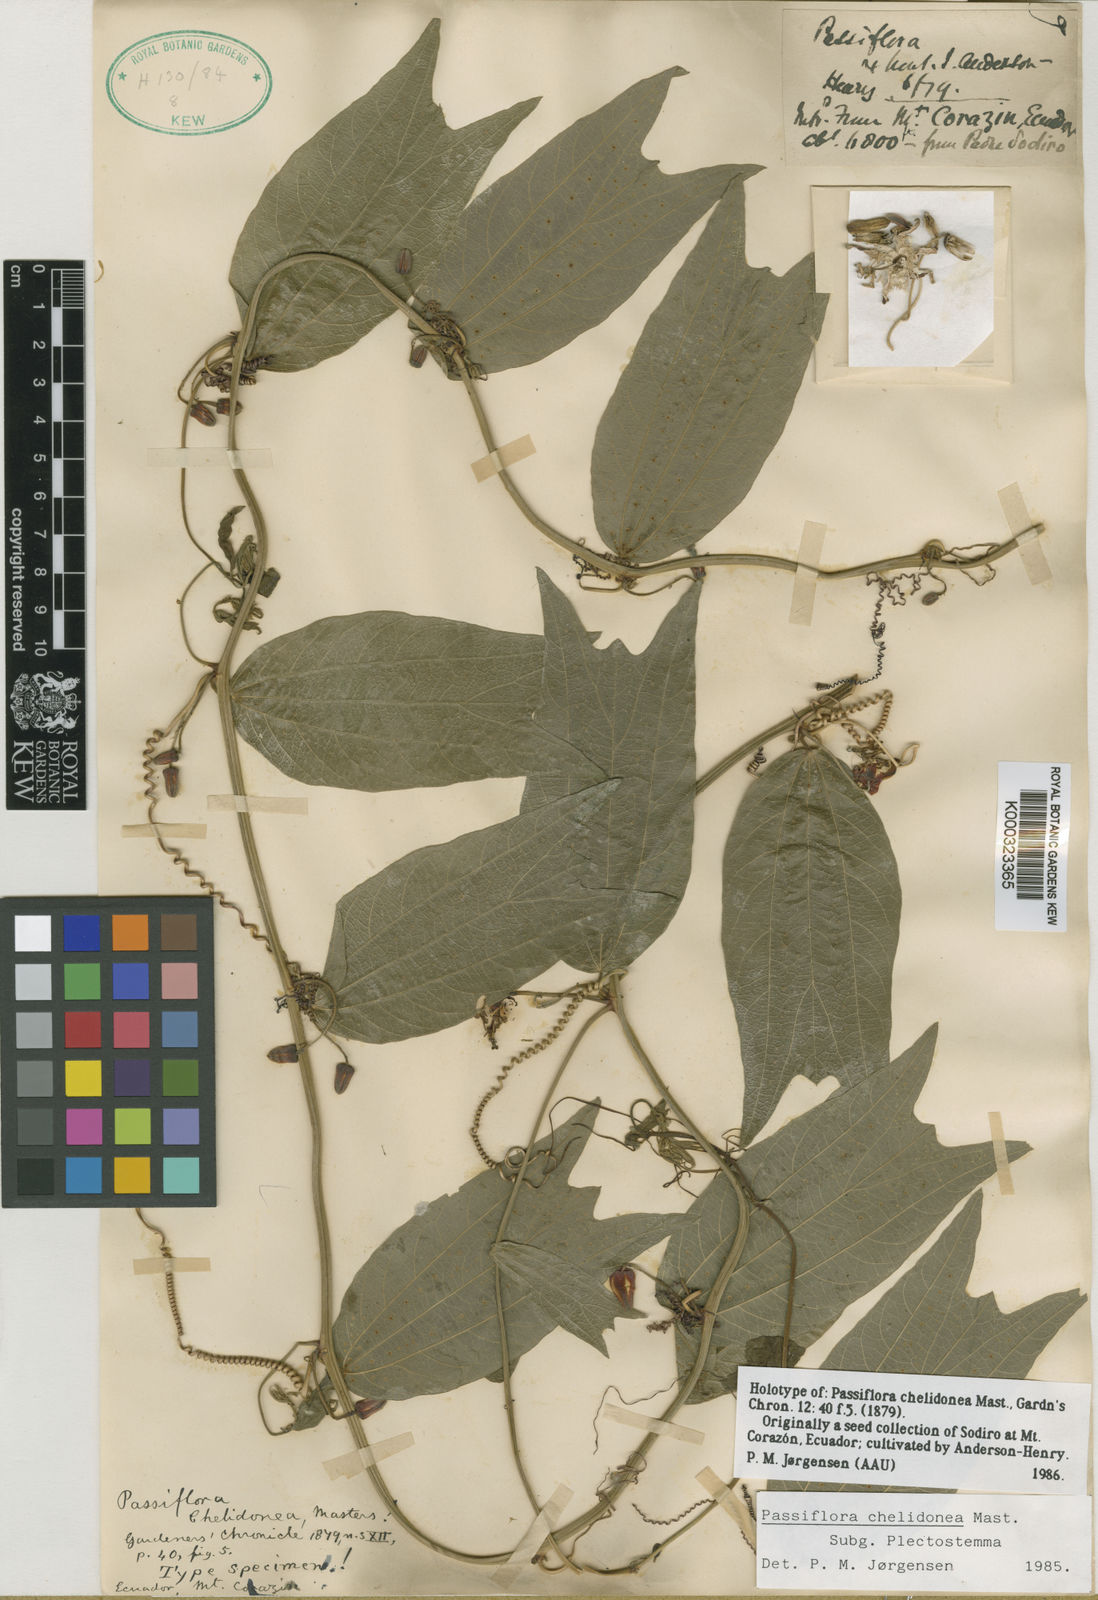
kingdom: Plantae
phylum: Tracheophyta
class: Magnoliopsida
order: Malpighiales
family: Passifloraceae
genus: Passiflora
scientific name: Passiflora chelidonea
